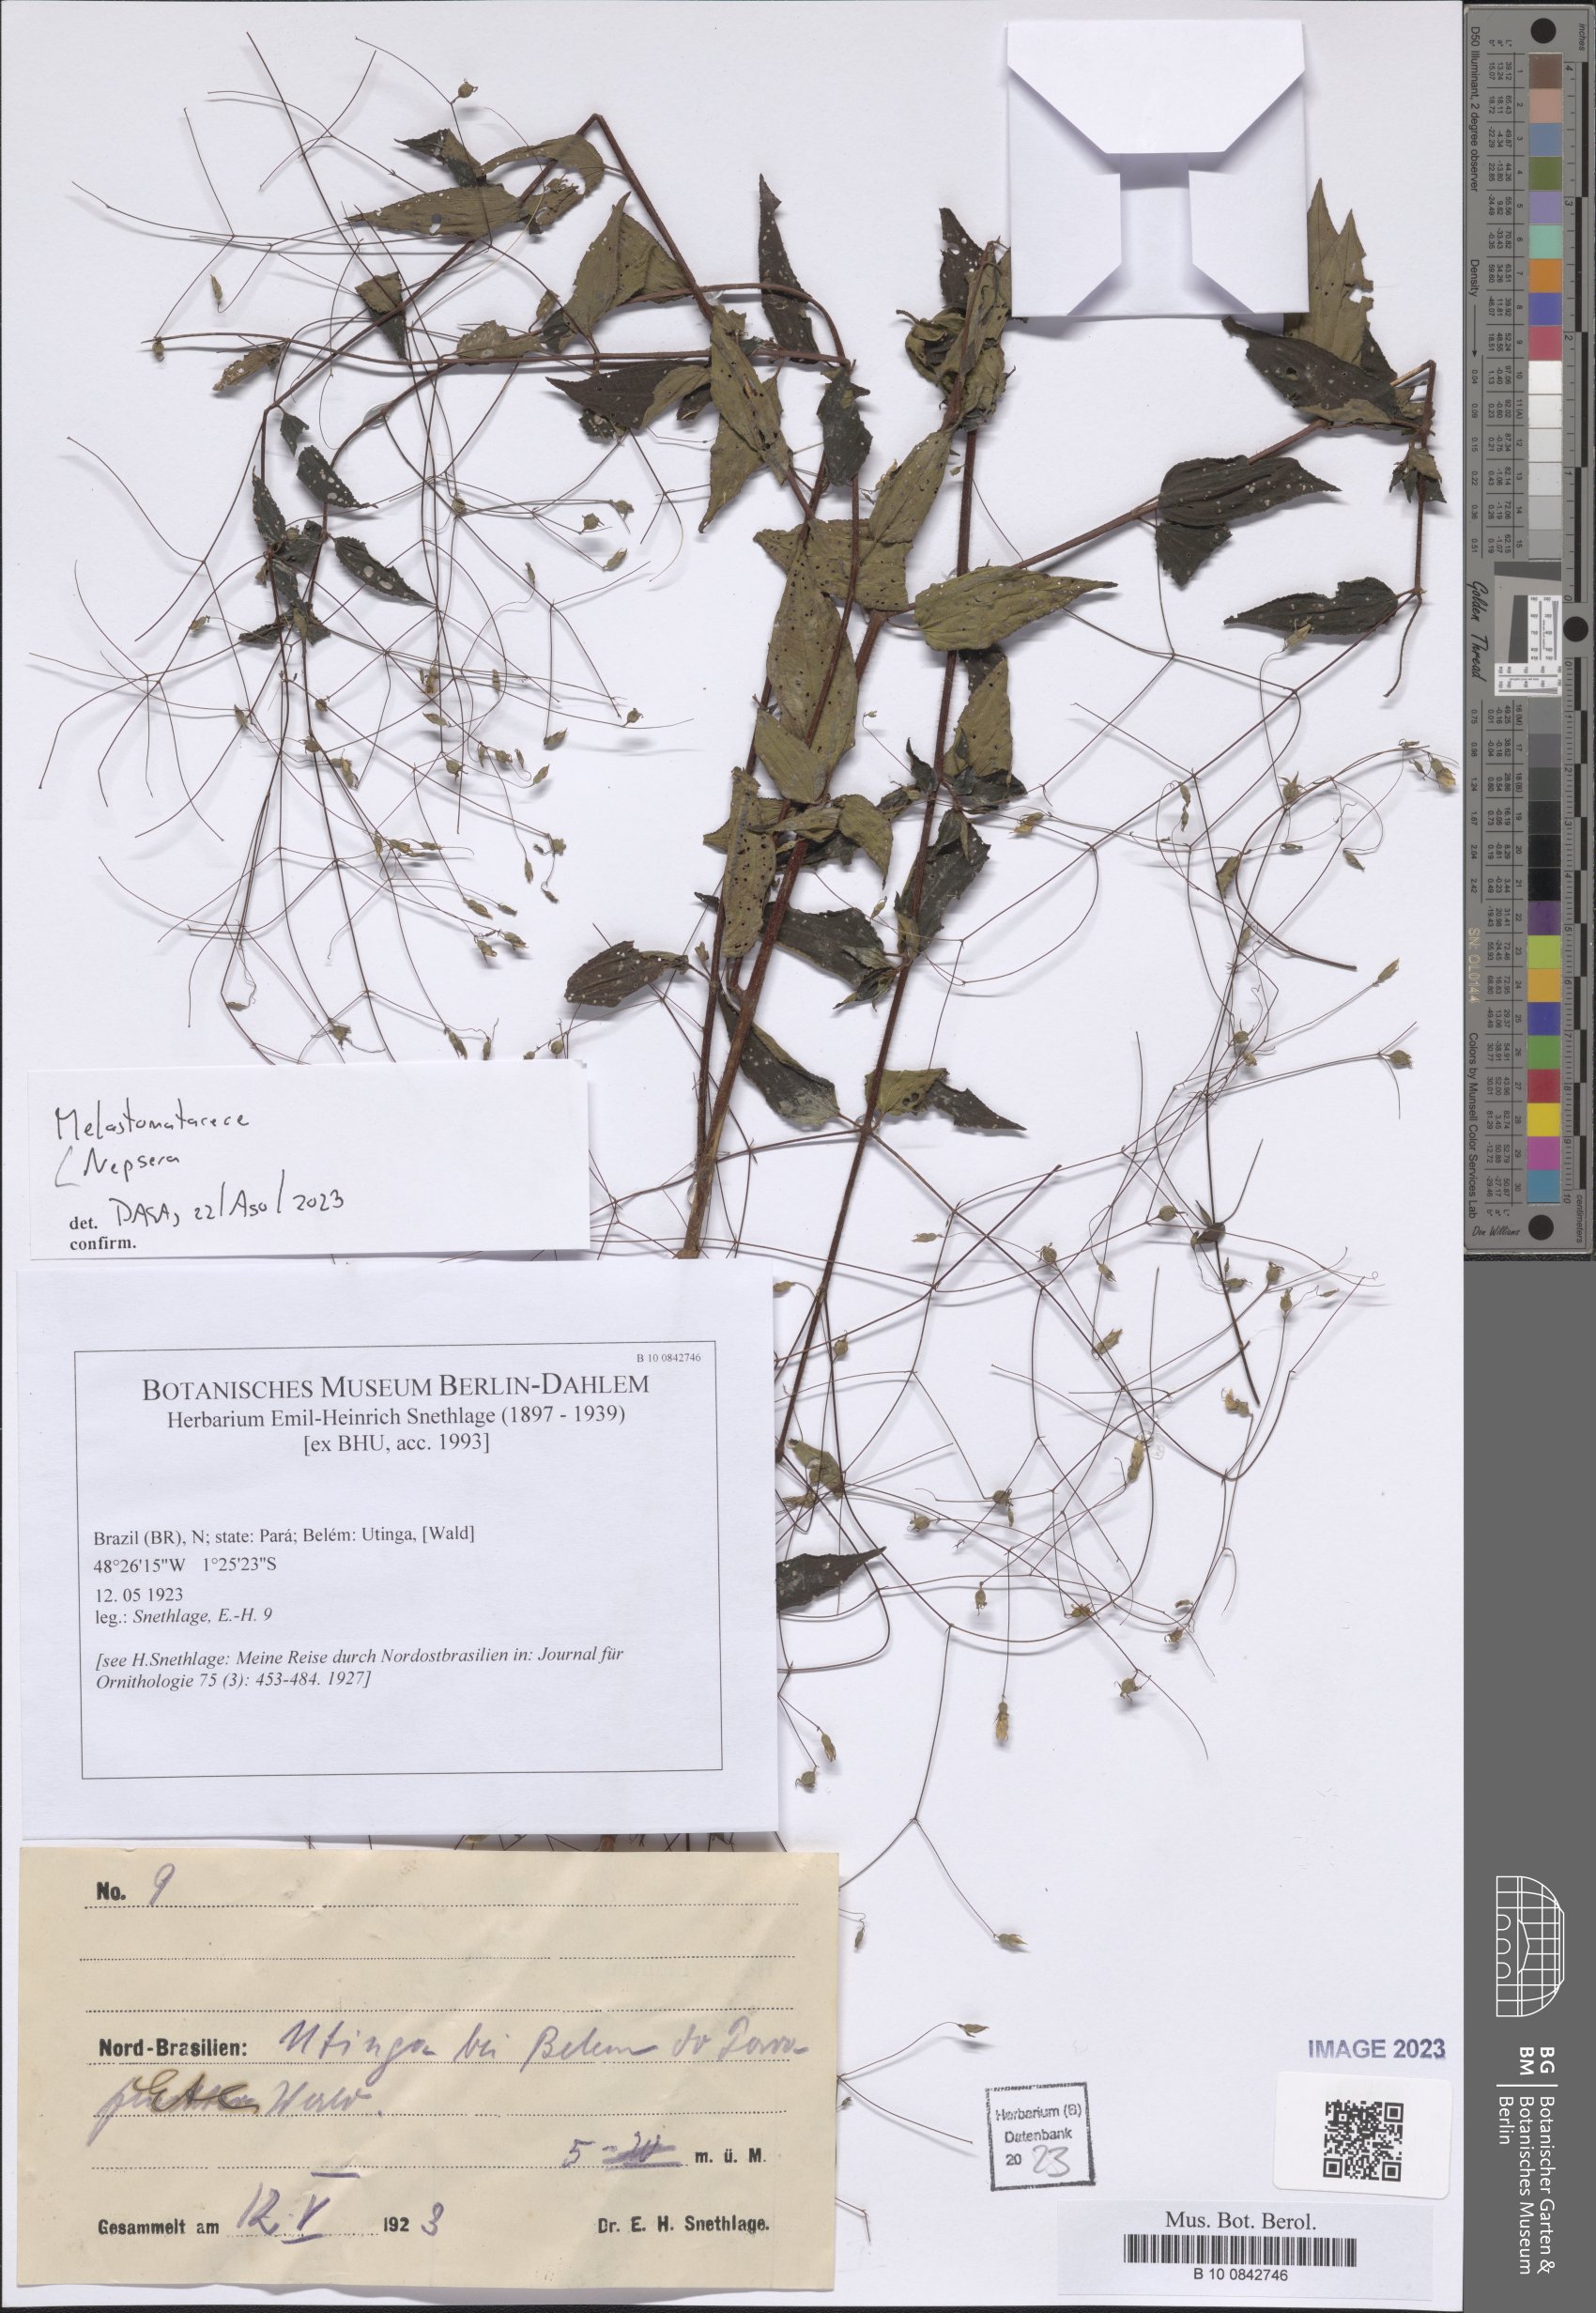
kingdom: Plantae
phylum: Tracheophyta
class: Magnoliopsida
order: Myrtales
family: Melastomataceae
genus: Nepsera
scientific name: Nepsera
